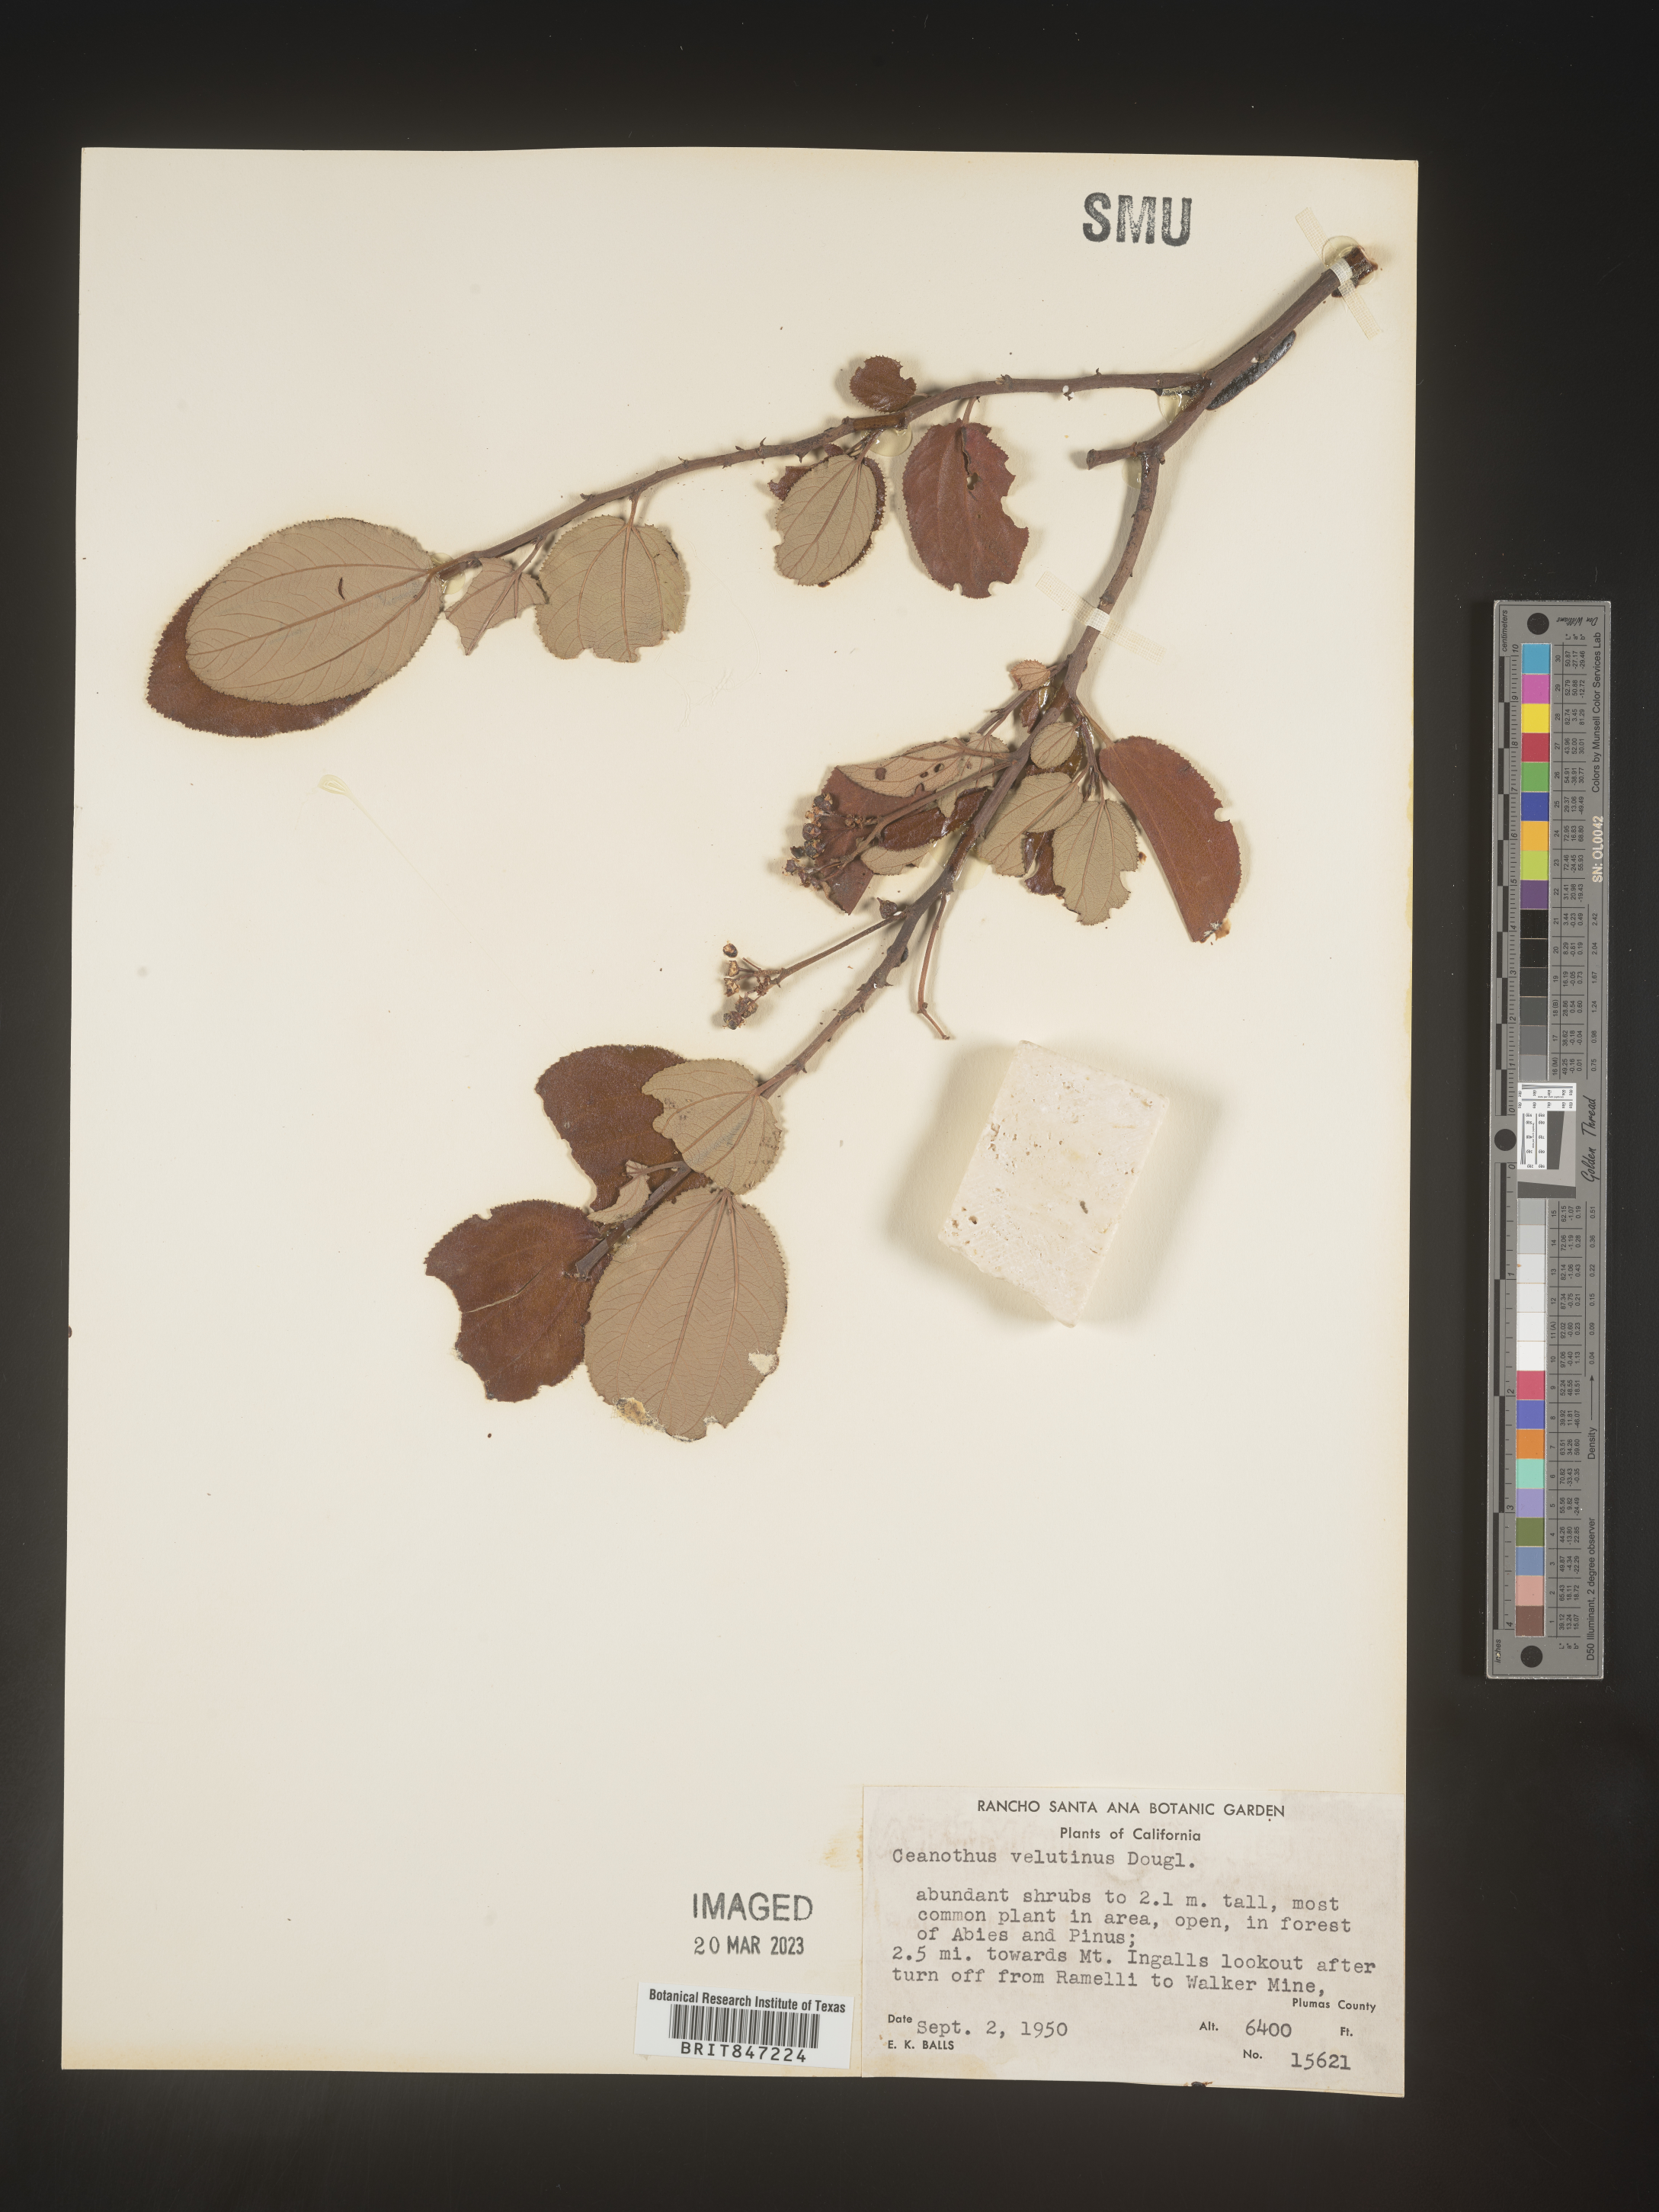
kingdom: Plantae
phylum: Tracheophyta
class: Magnoliopsida
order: Rosales
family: Rhamnaceae
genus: Ceanothus
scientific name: Ceanothus velutinus
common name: Snowbrush
